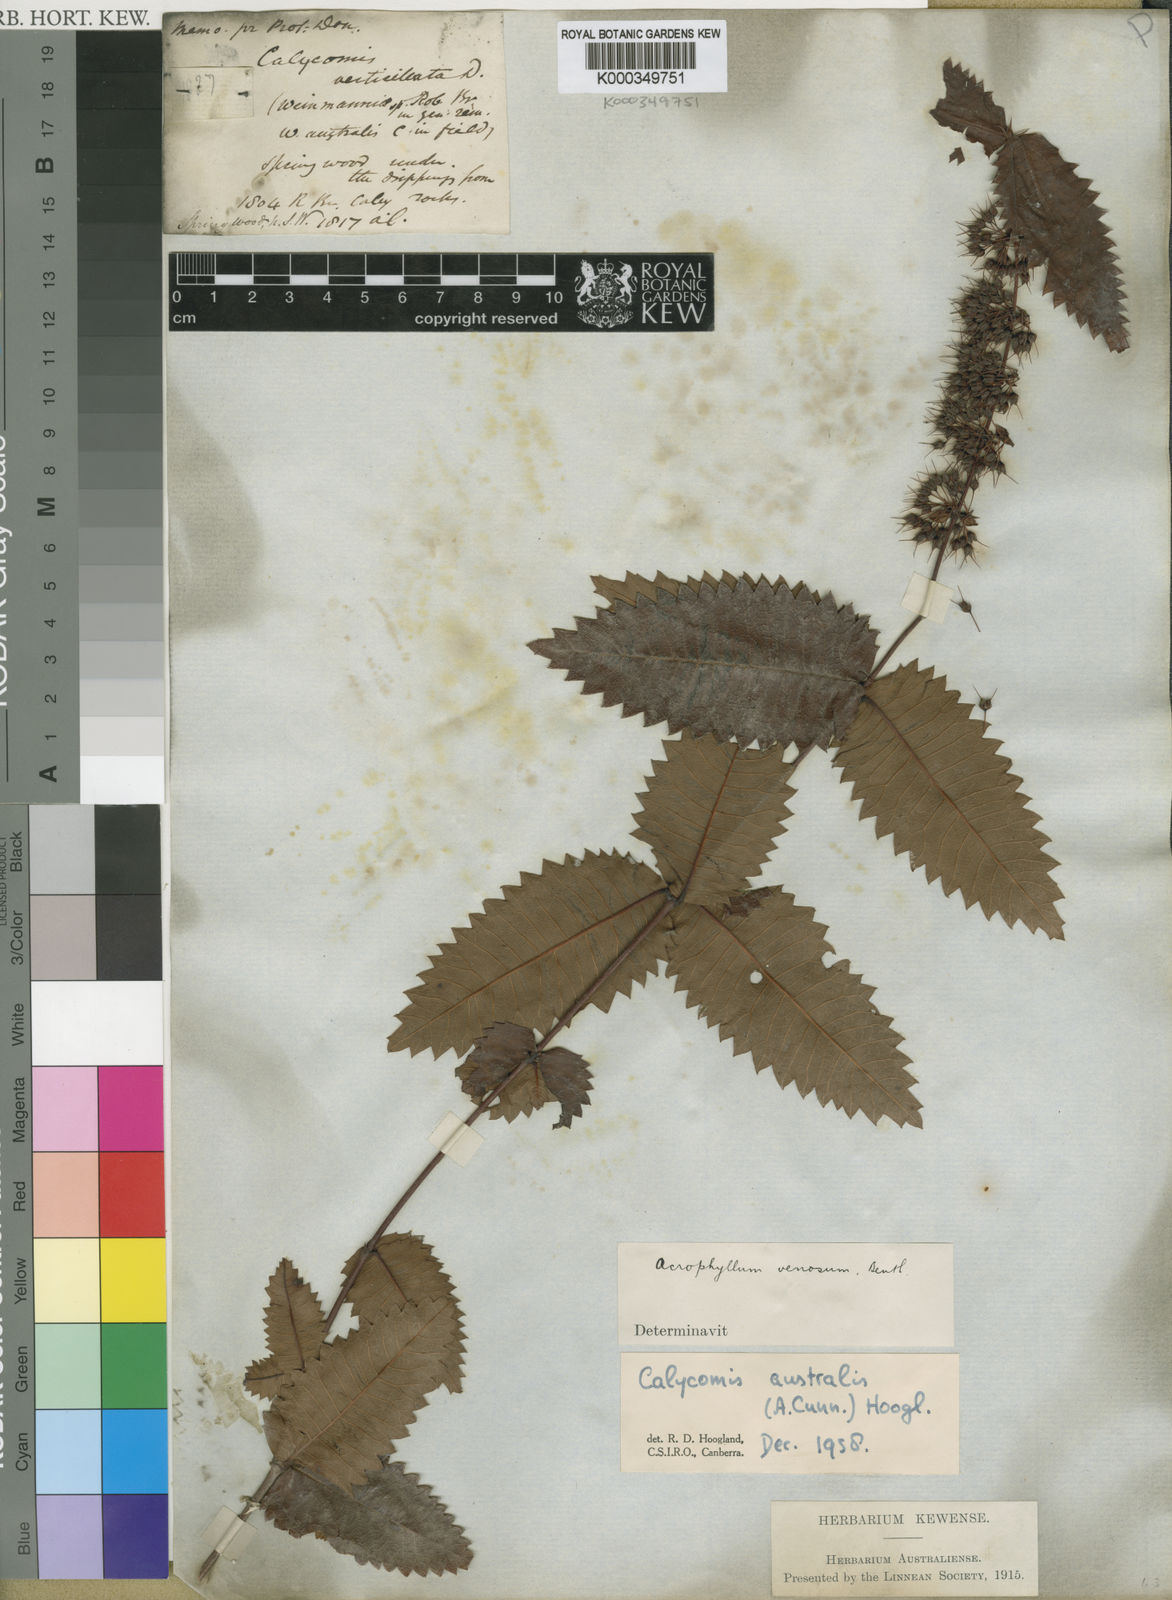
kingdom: Plantae
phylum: Tracheophyta
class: Magnoliopsida
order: Oxalidales
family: Cunoniaceae
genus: Acrophyllum
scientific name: Acrophyllum australe
